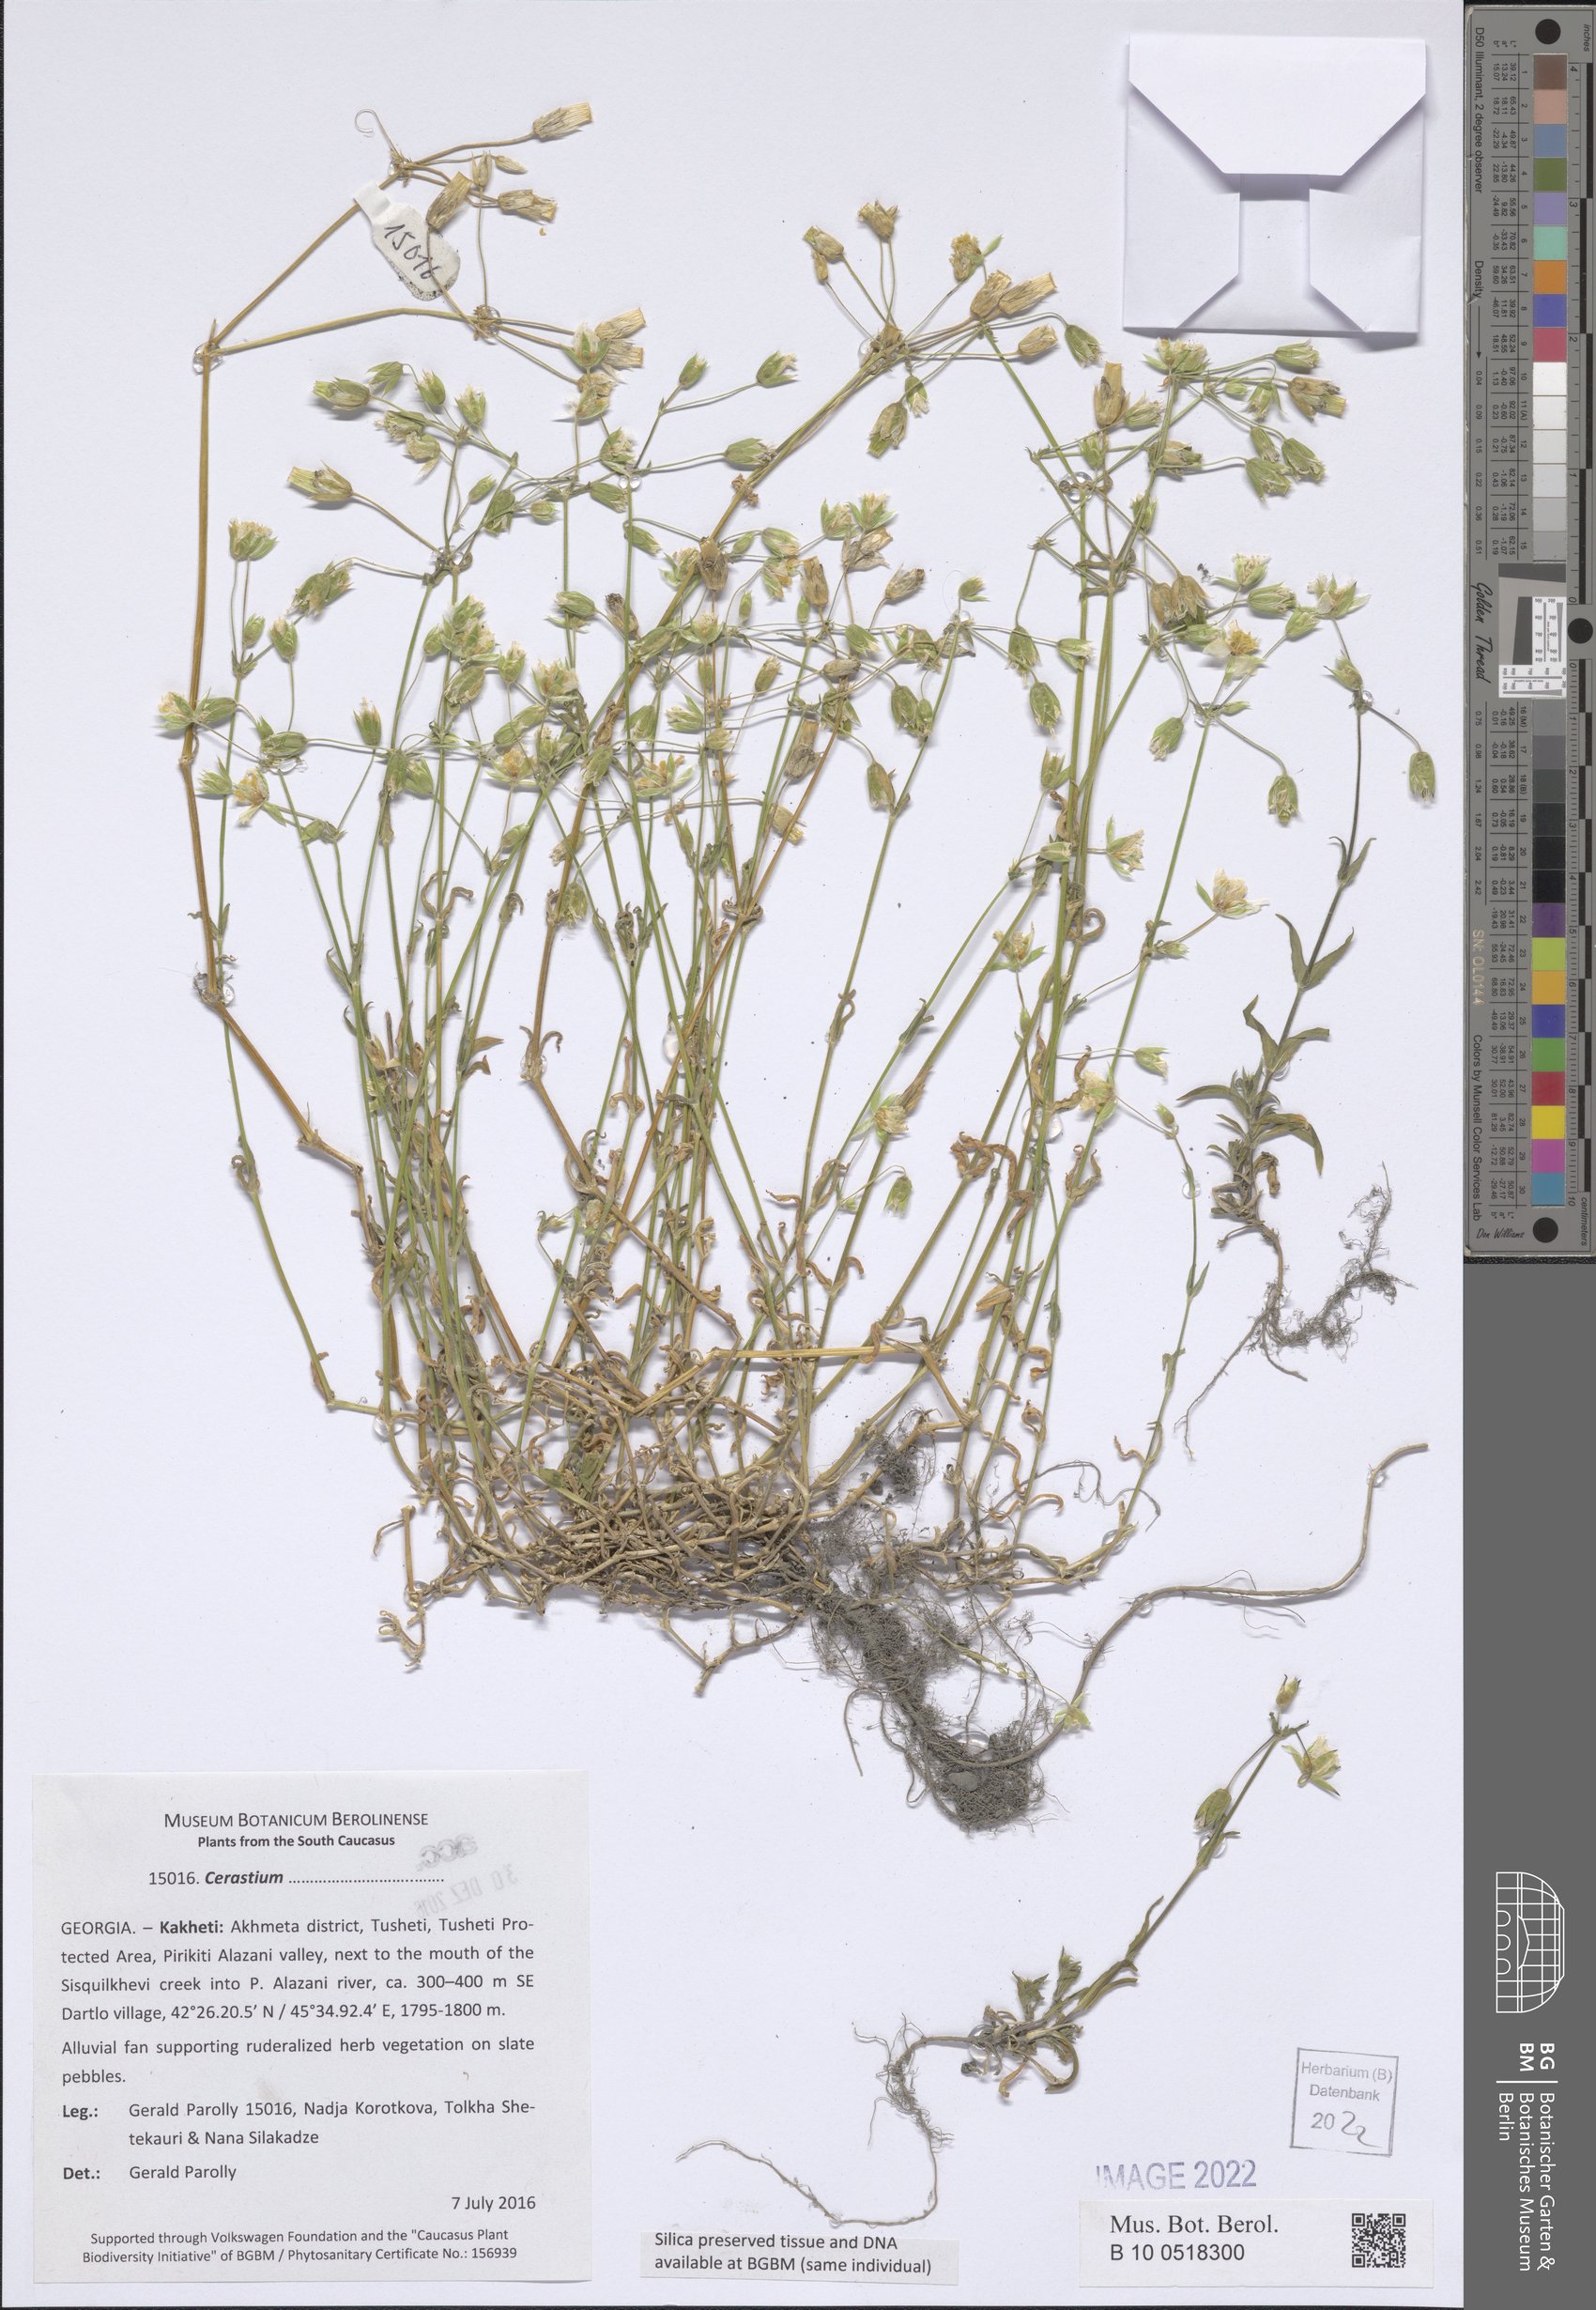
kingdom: Plantae
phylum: Tracheophyta
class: Magnoliopsida
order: Caryophyllales
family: Caryophyllaceae
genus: Cerastium
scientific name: Cerastium
